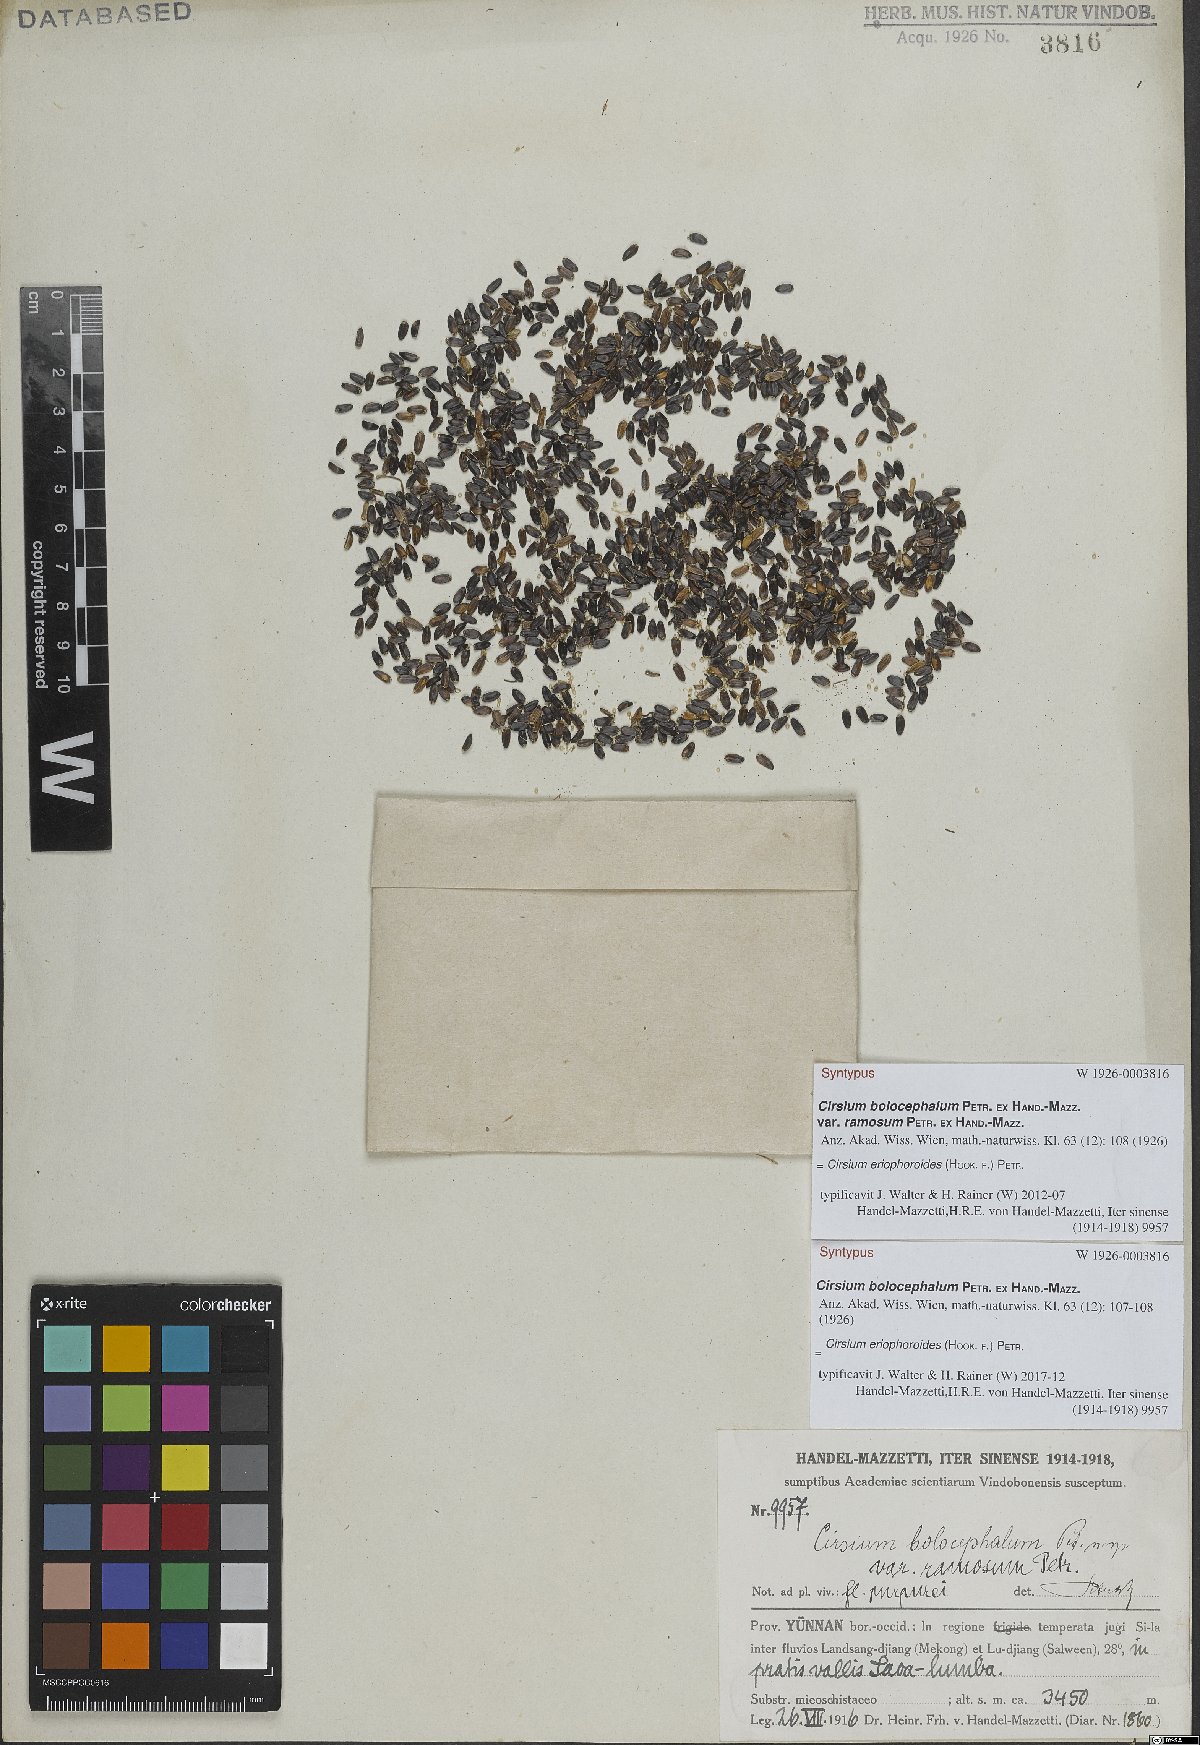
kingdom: Plantae
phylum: Tracheophyta
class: Magnoliopsida
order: Asterales
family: Asteraceae
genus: Cirsium
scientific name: Cirsium eriophoroides
